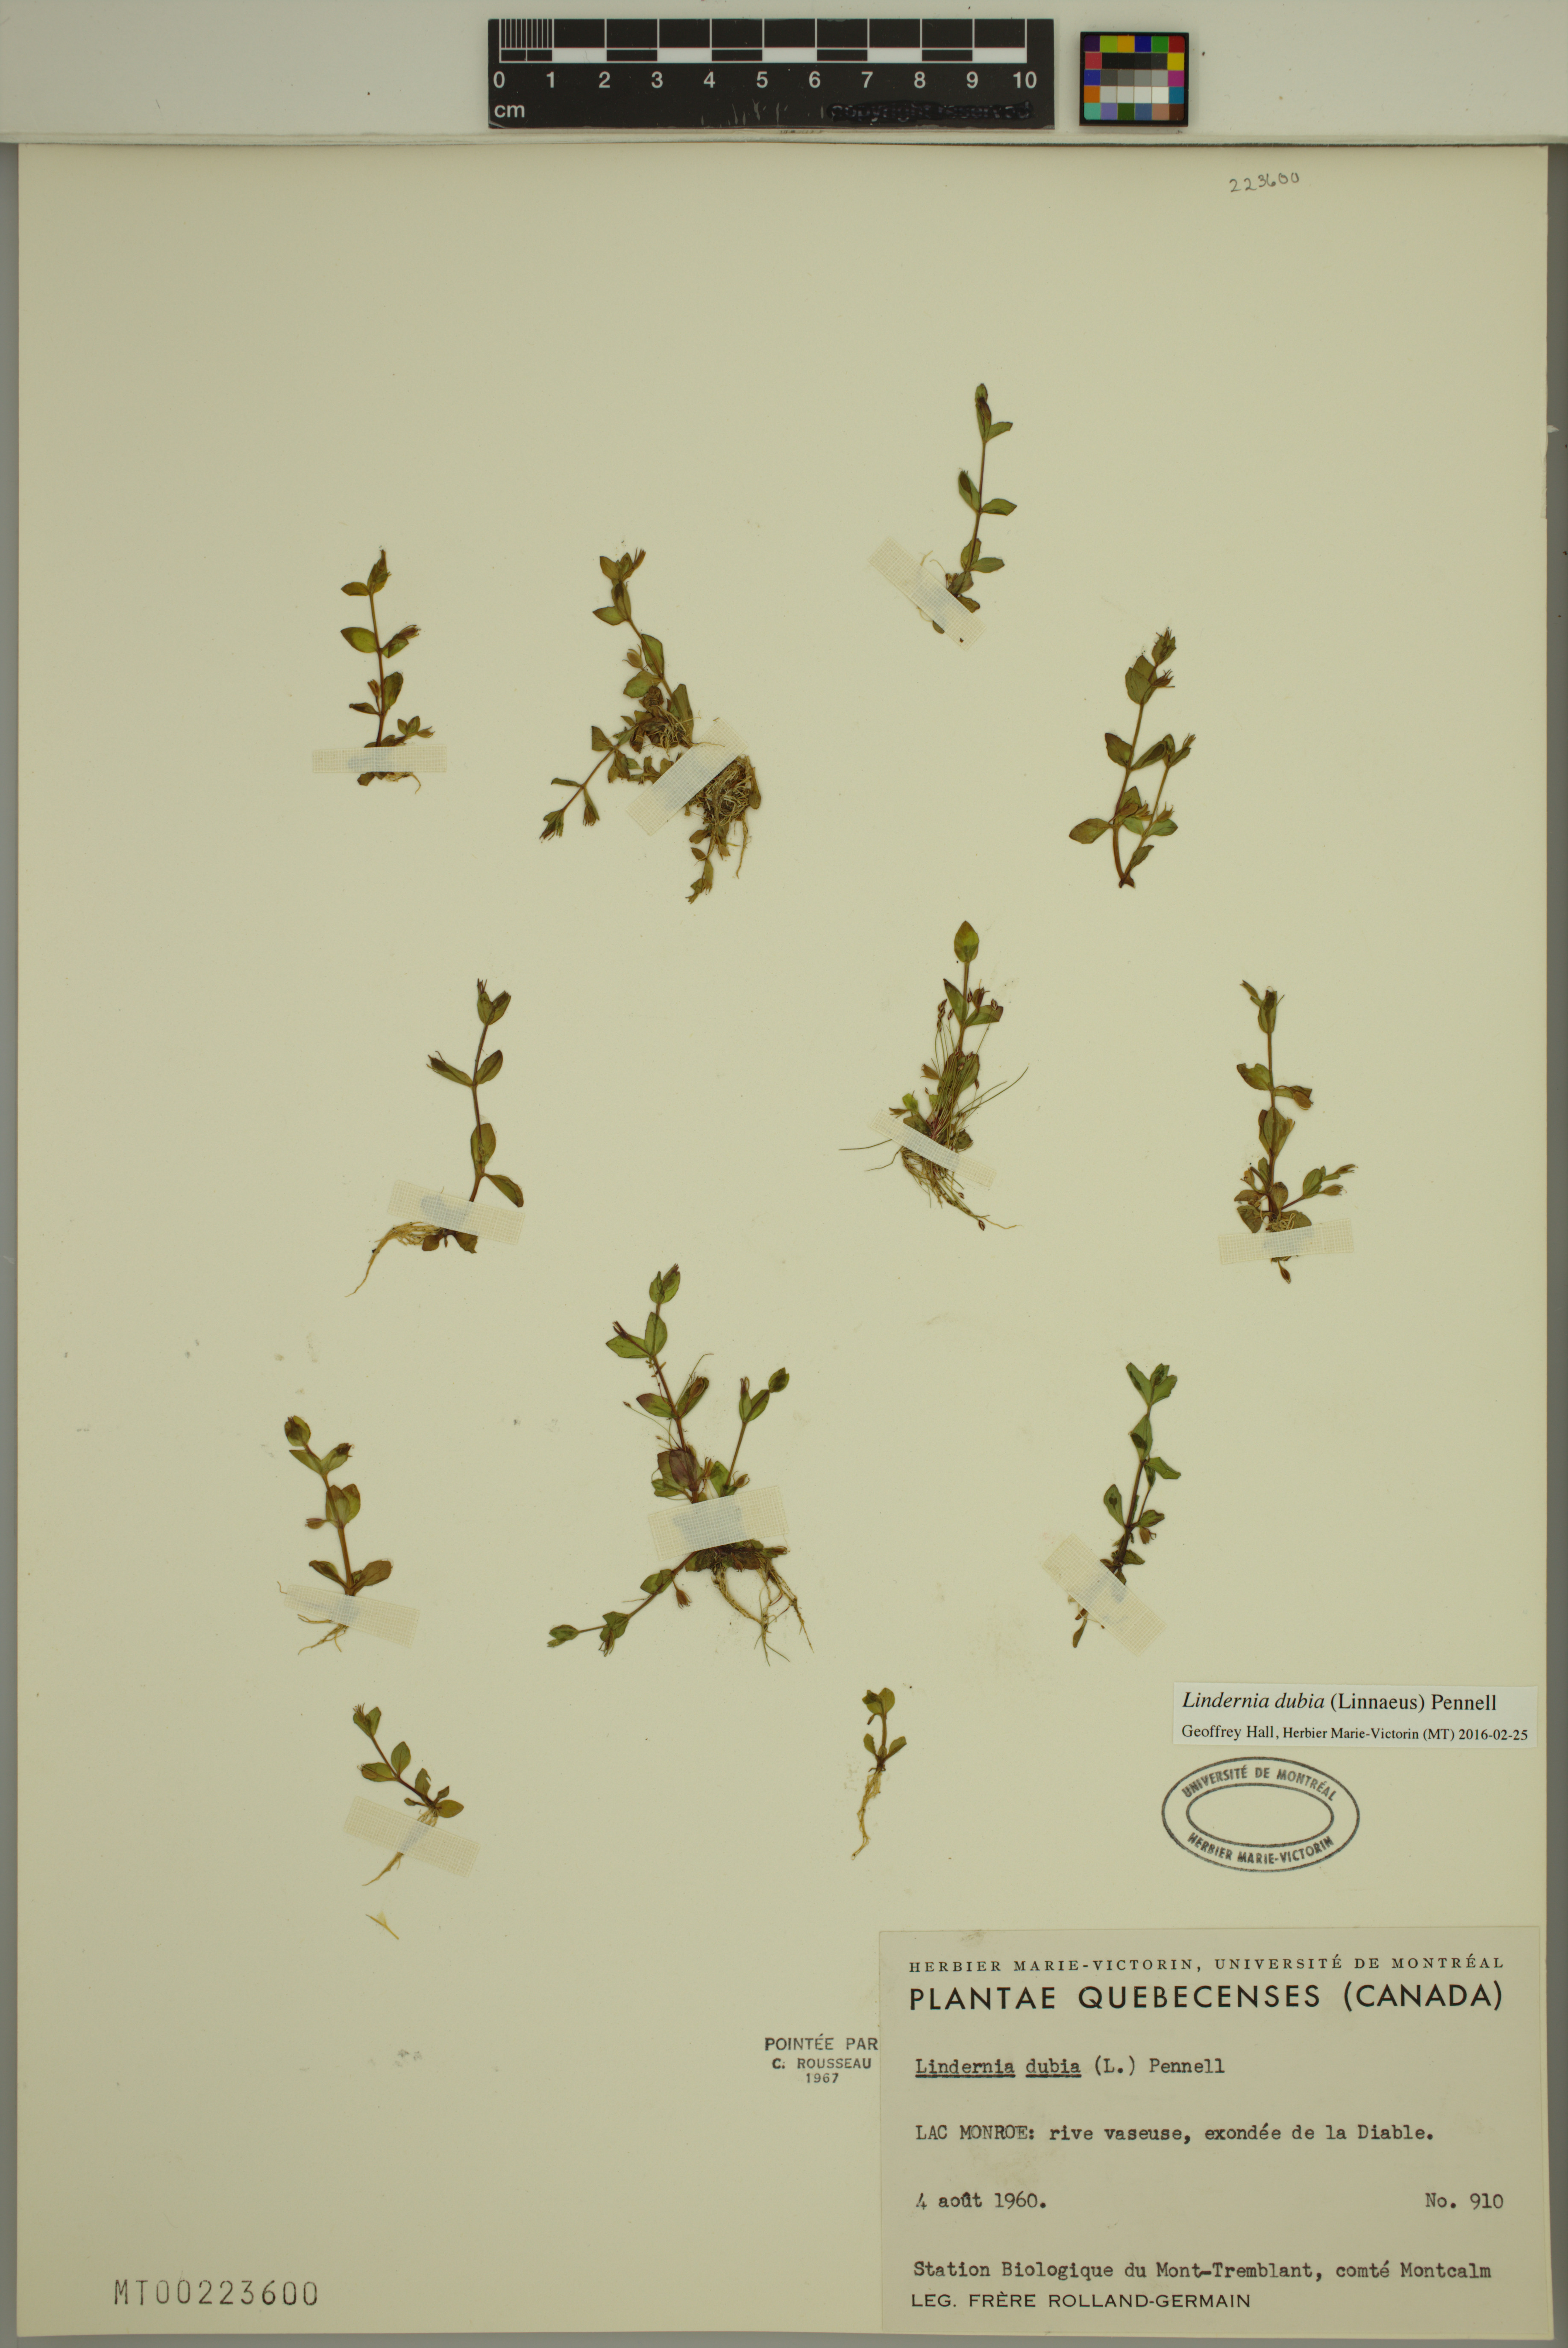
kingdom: Plantae
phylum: Tracheophyta
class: Magnoliopsida
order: Lamiales
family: Linderniaceae
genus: Lindernia
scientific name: Lindernia dubia
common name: Annual false pimpernel
